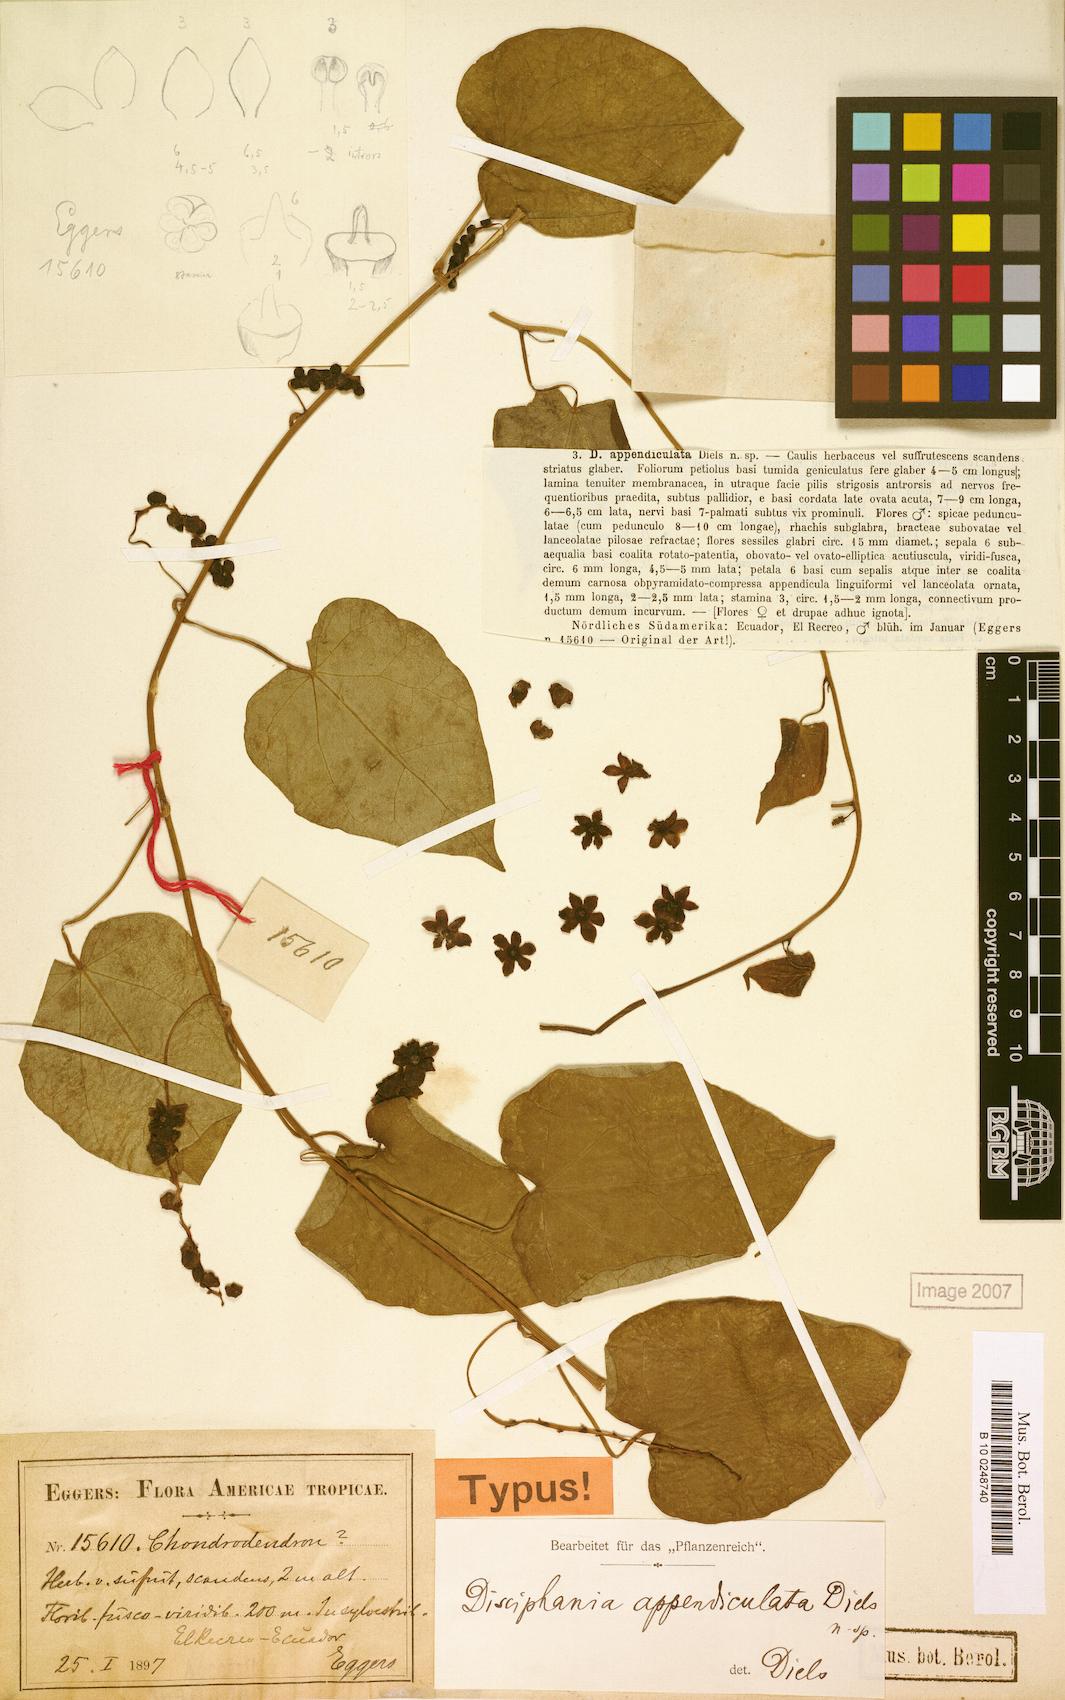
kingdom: Plantae
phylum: Tracheophyta
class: Magnoliopsida
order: Ranunculales
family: Menispermaceae
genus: Disciphania
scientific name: Disciphania ernstii
